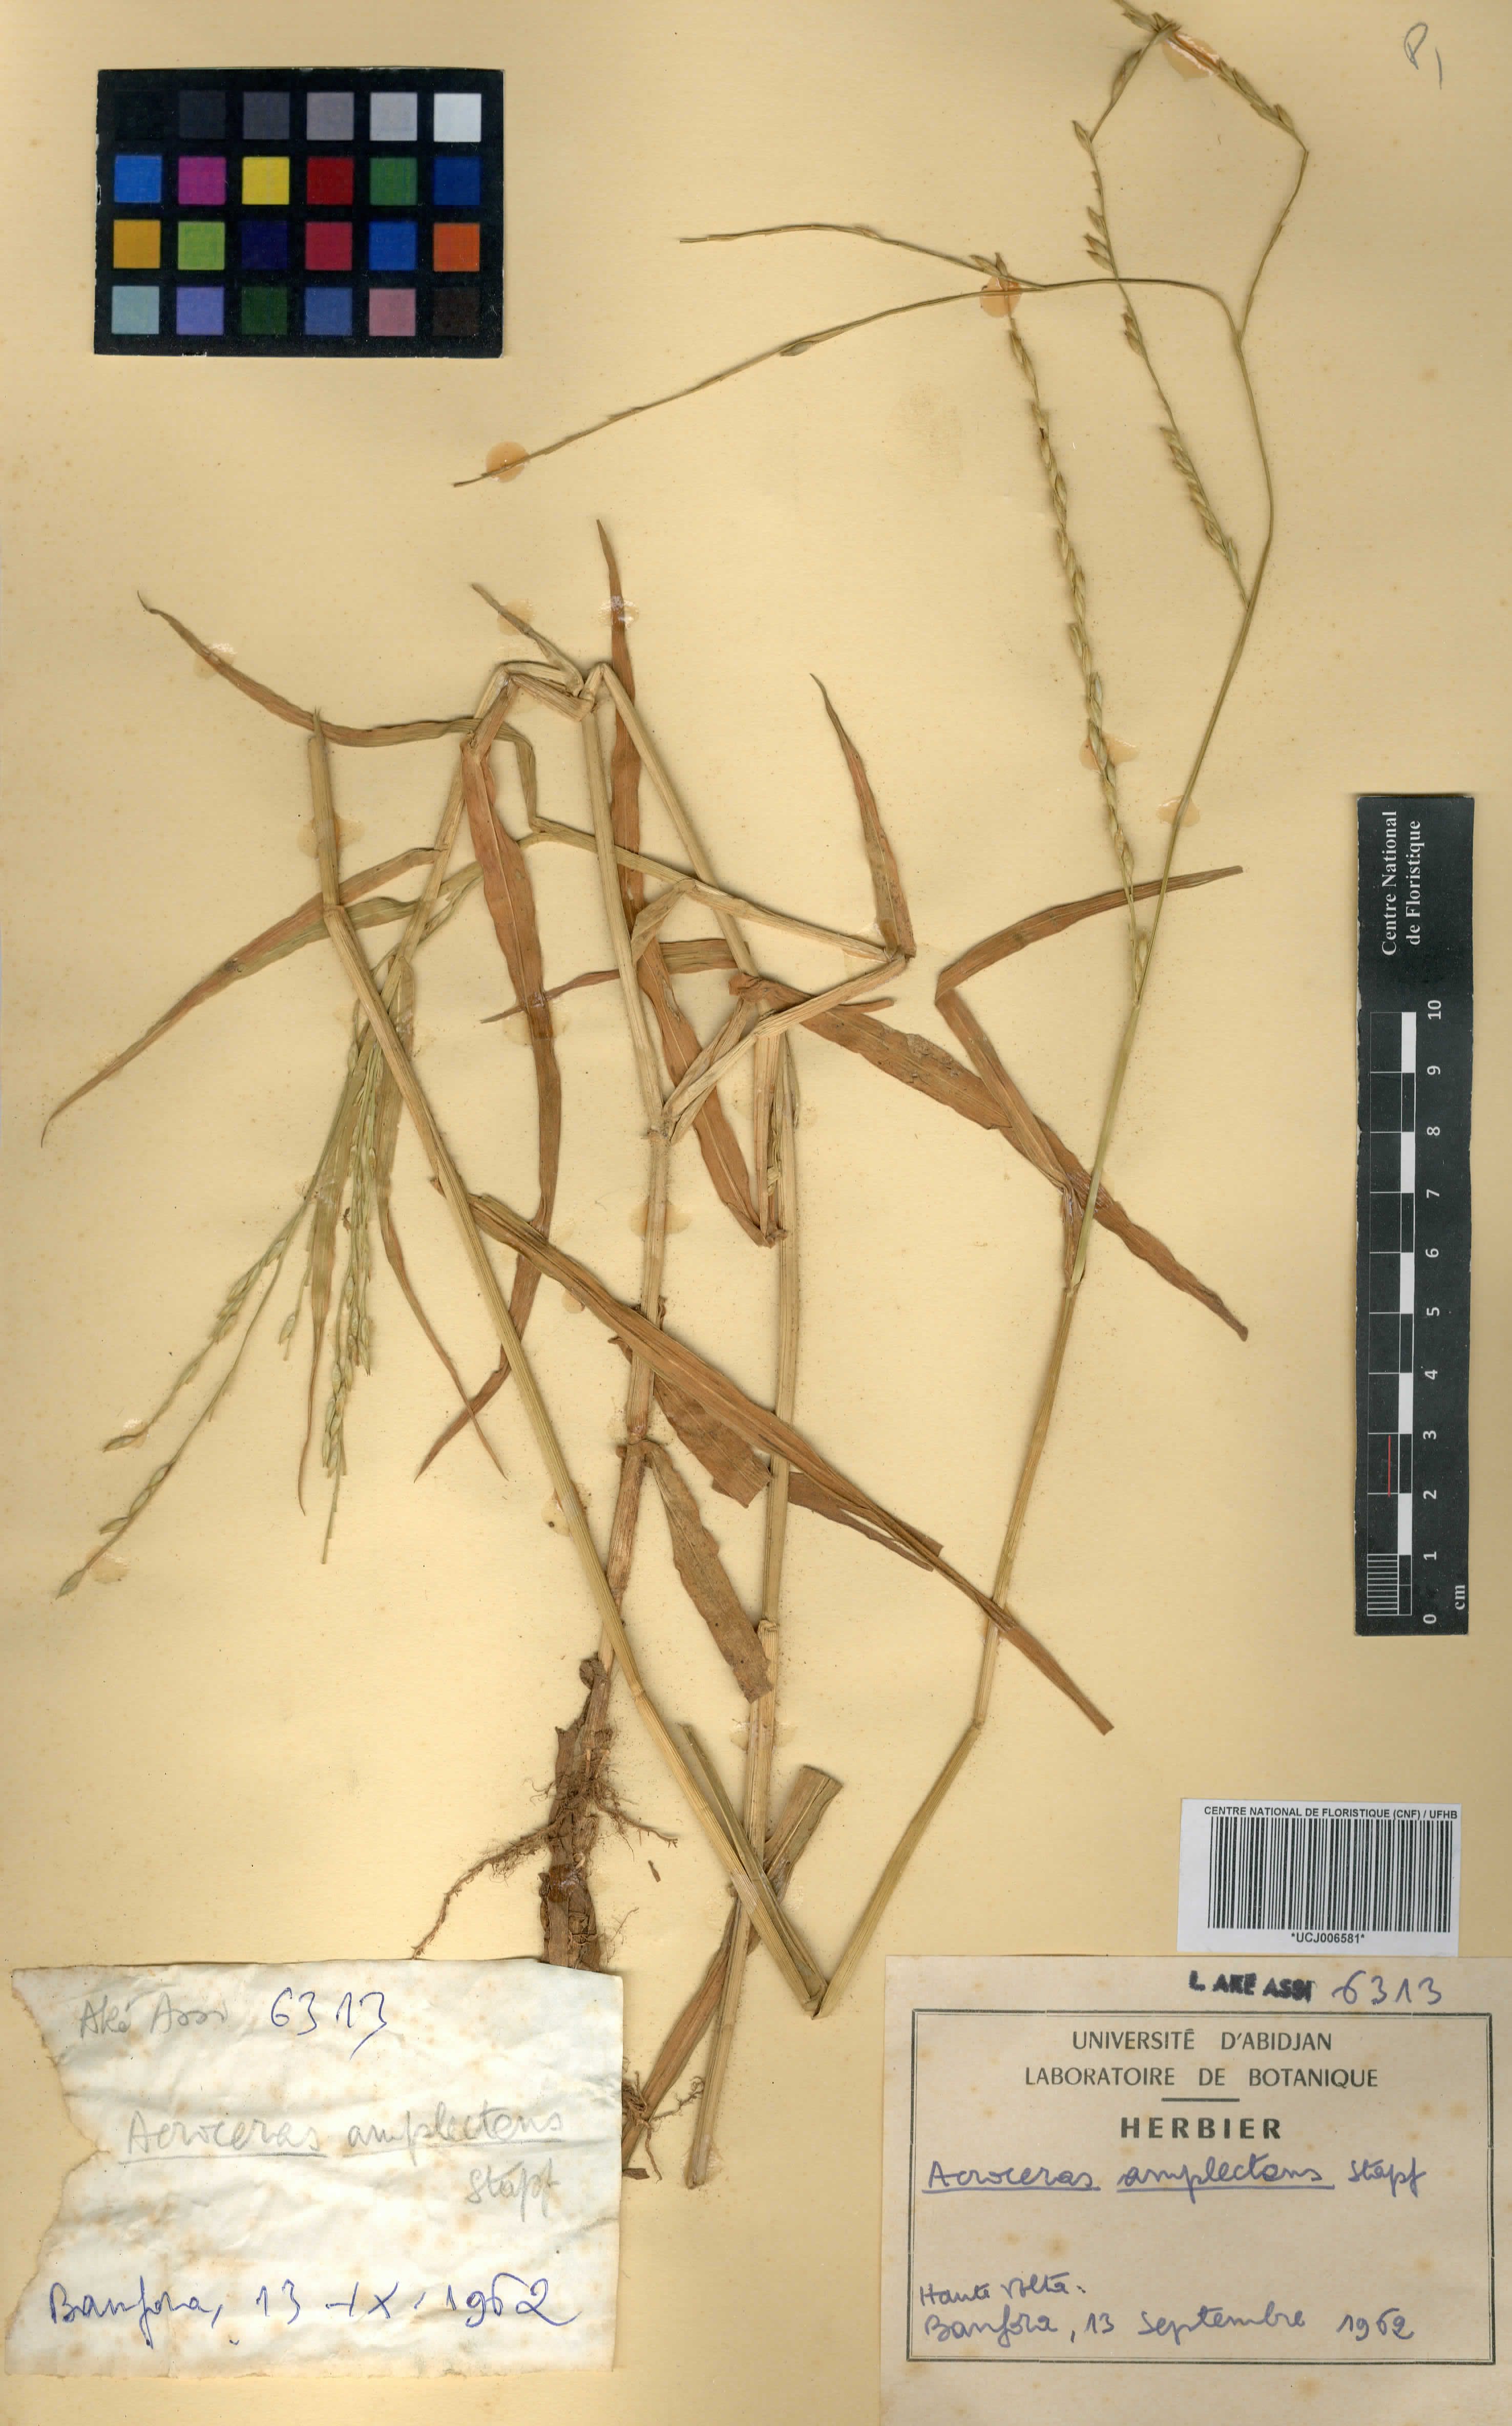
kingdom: Plantae
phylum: Tracheophyta
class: Liliopsida
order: Poales
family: Poaceae
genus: Acroceras
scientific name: Acroceras amplectens
